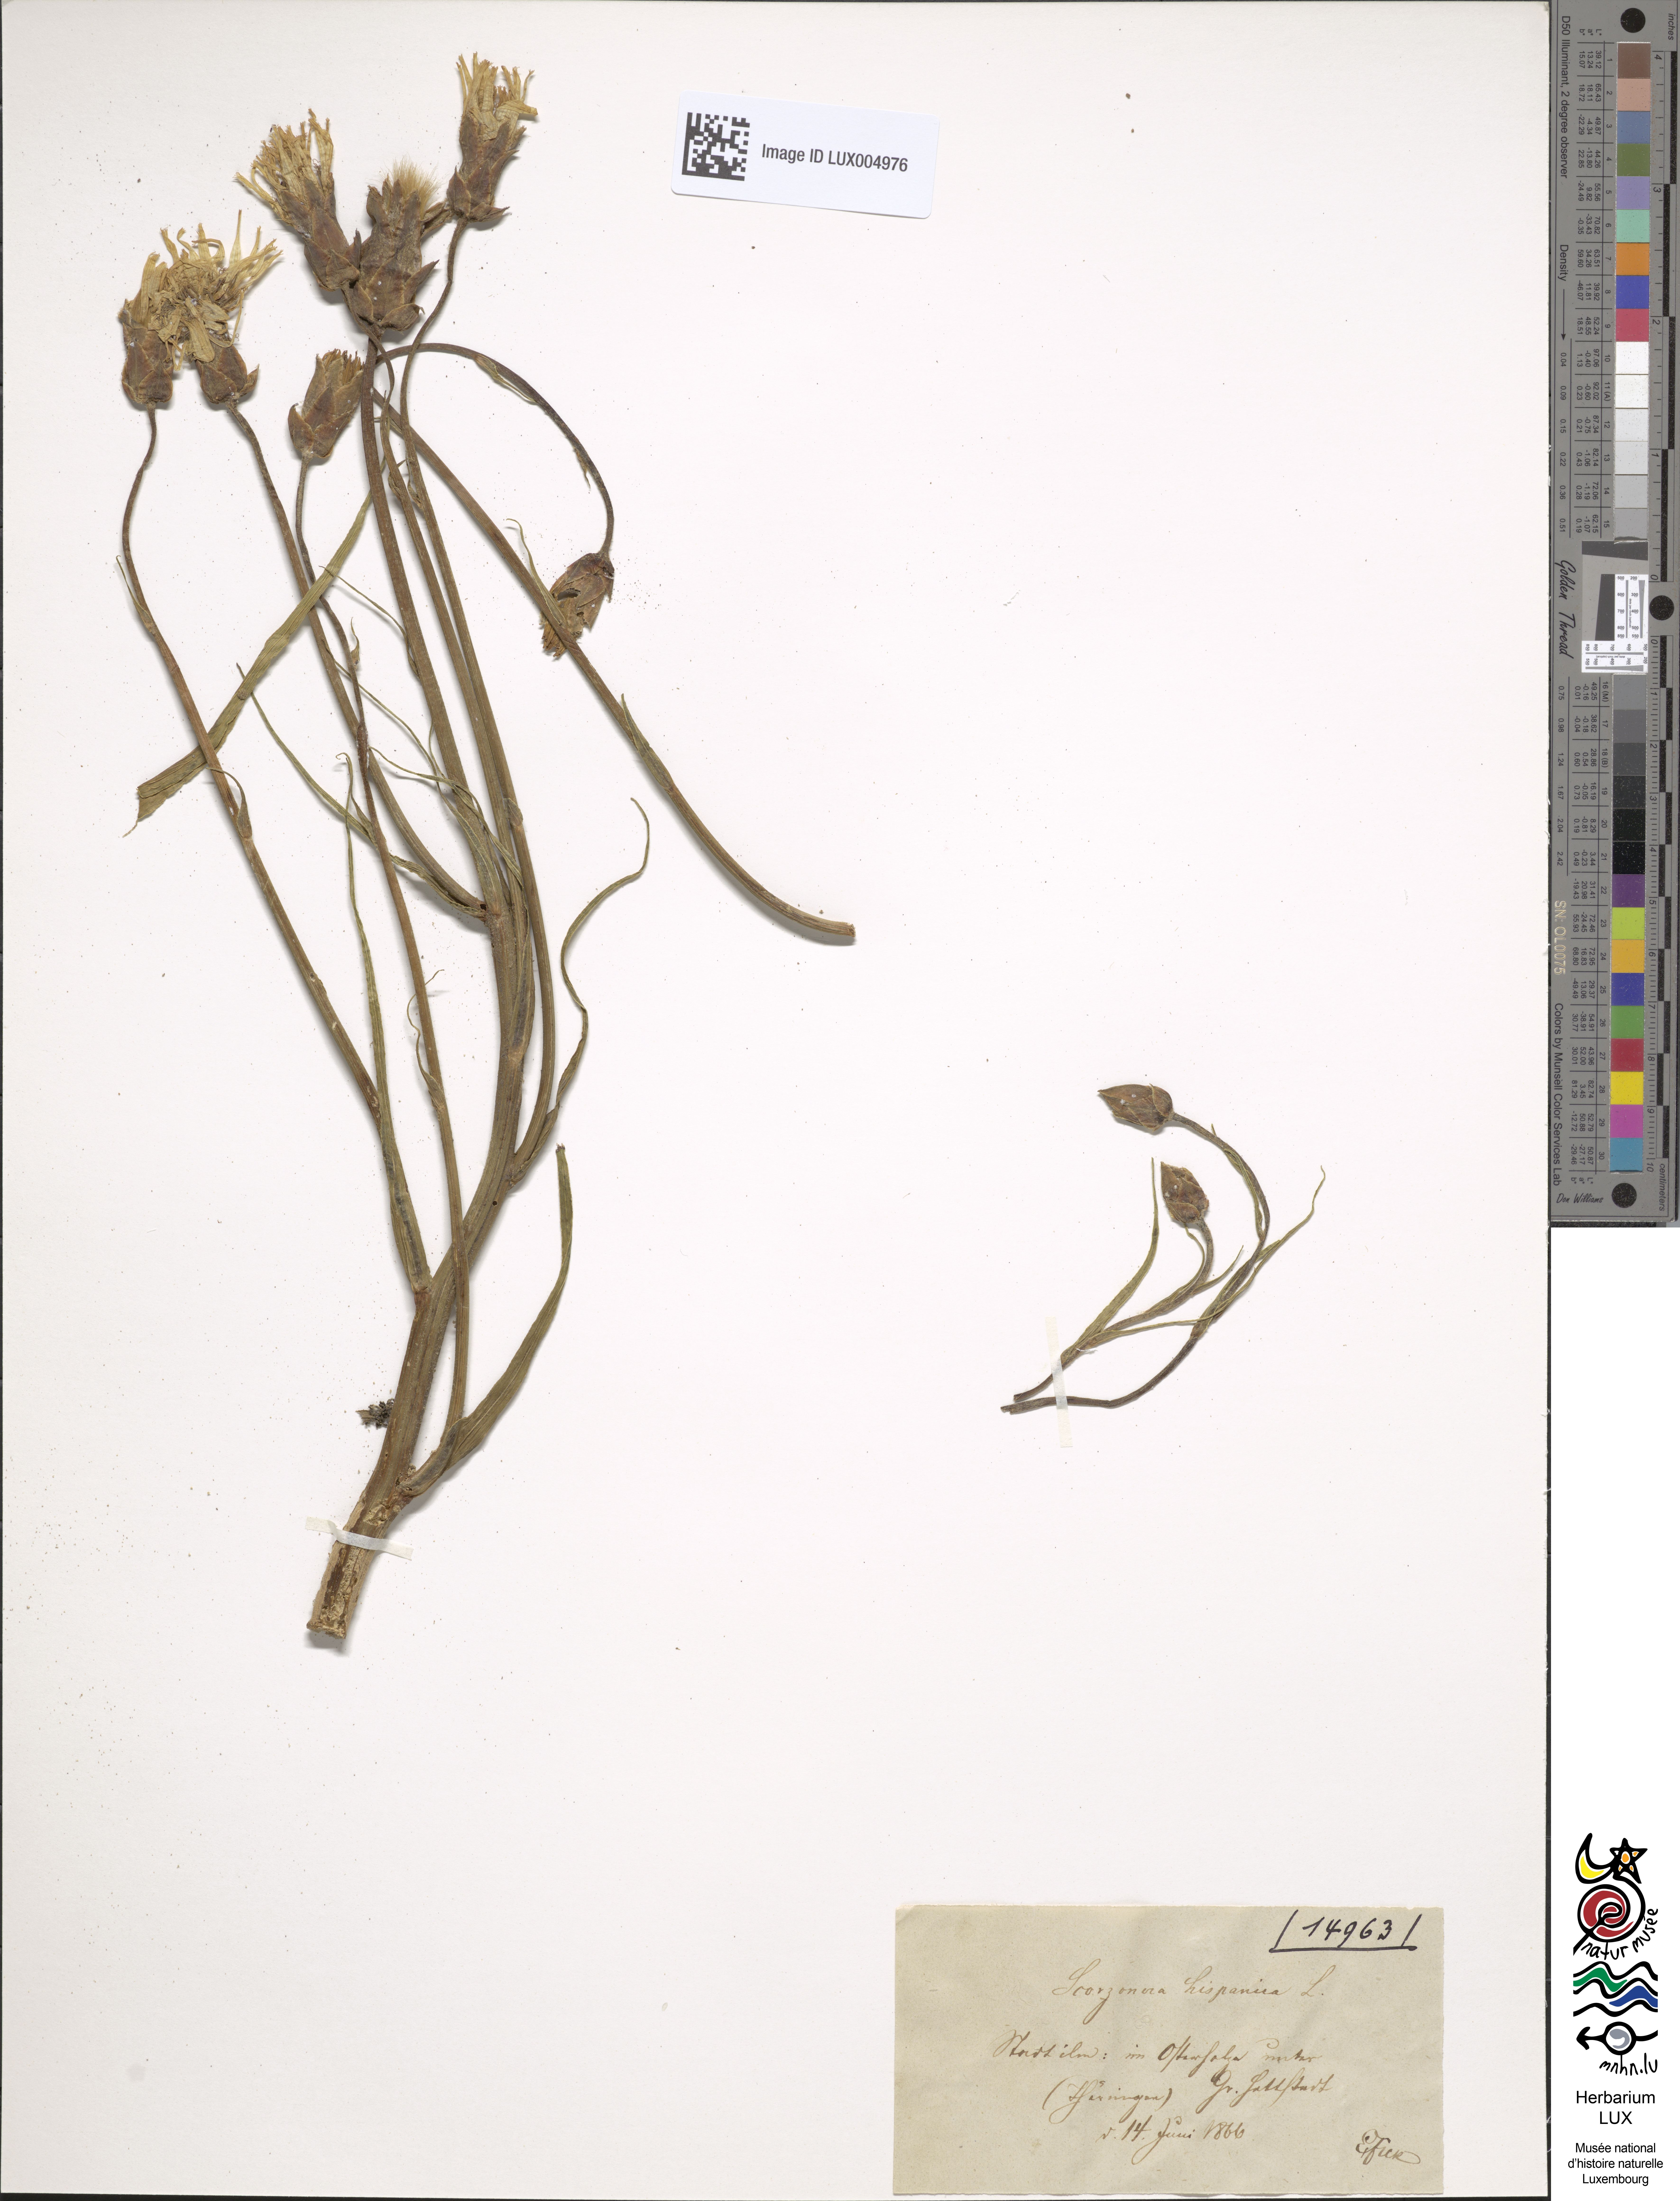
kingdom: Plantae
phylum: Tracheophyta
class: Magnoliopsida
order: Asterales
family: Asteraceae
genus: Pseudopodospermum
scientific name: Pseudopodospermum hispanicum
